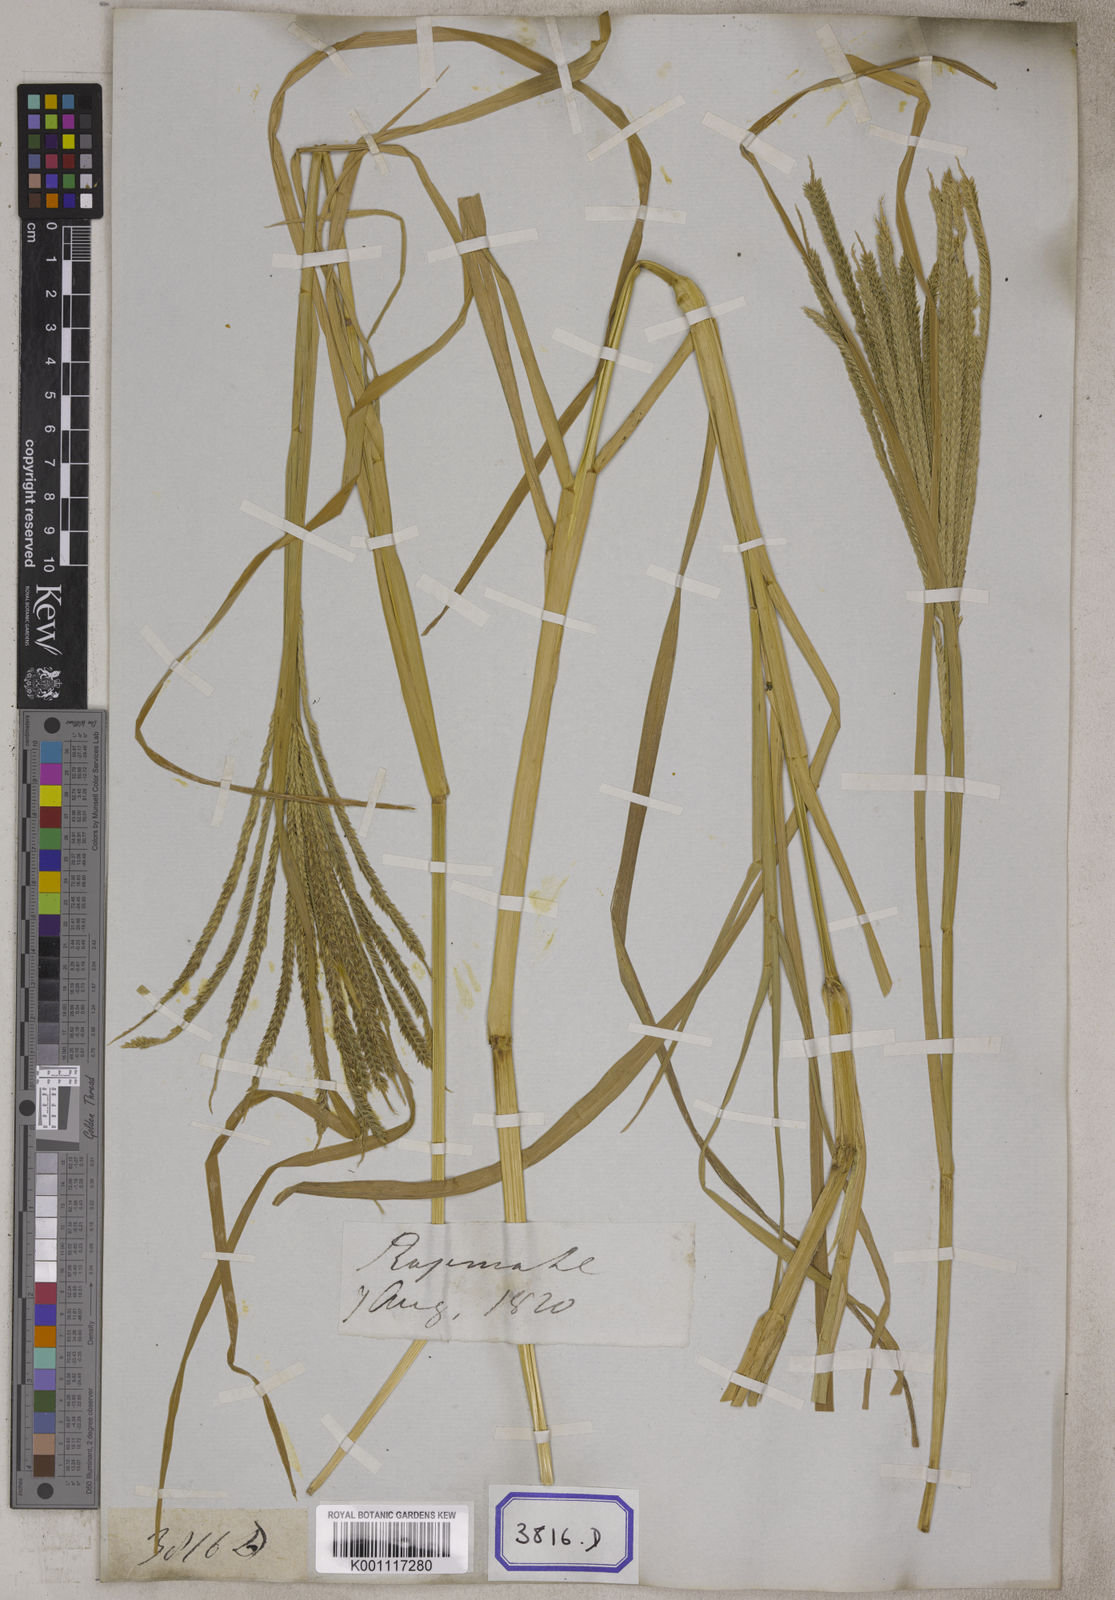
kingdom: Plantae
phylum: Tracheophyta
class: Liliopsida
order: Poales
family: Poaceae
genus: Eleusine
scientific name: Eleusine
